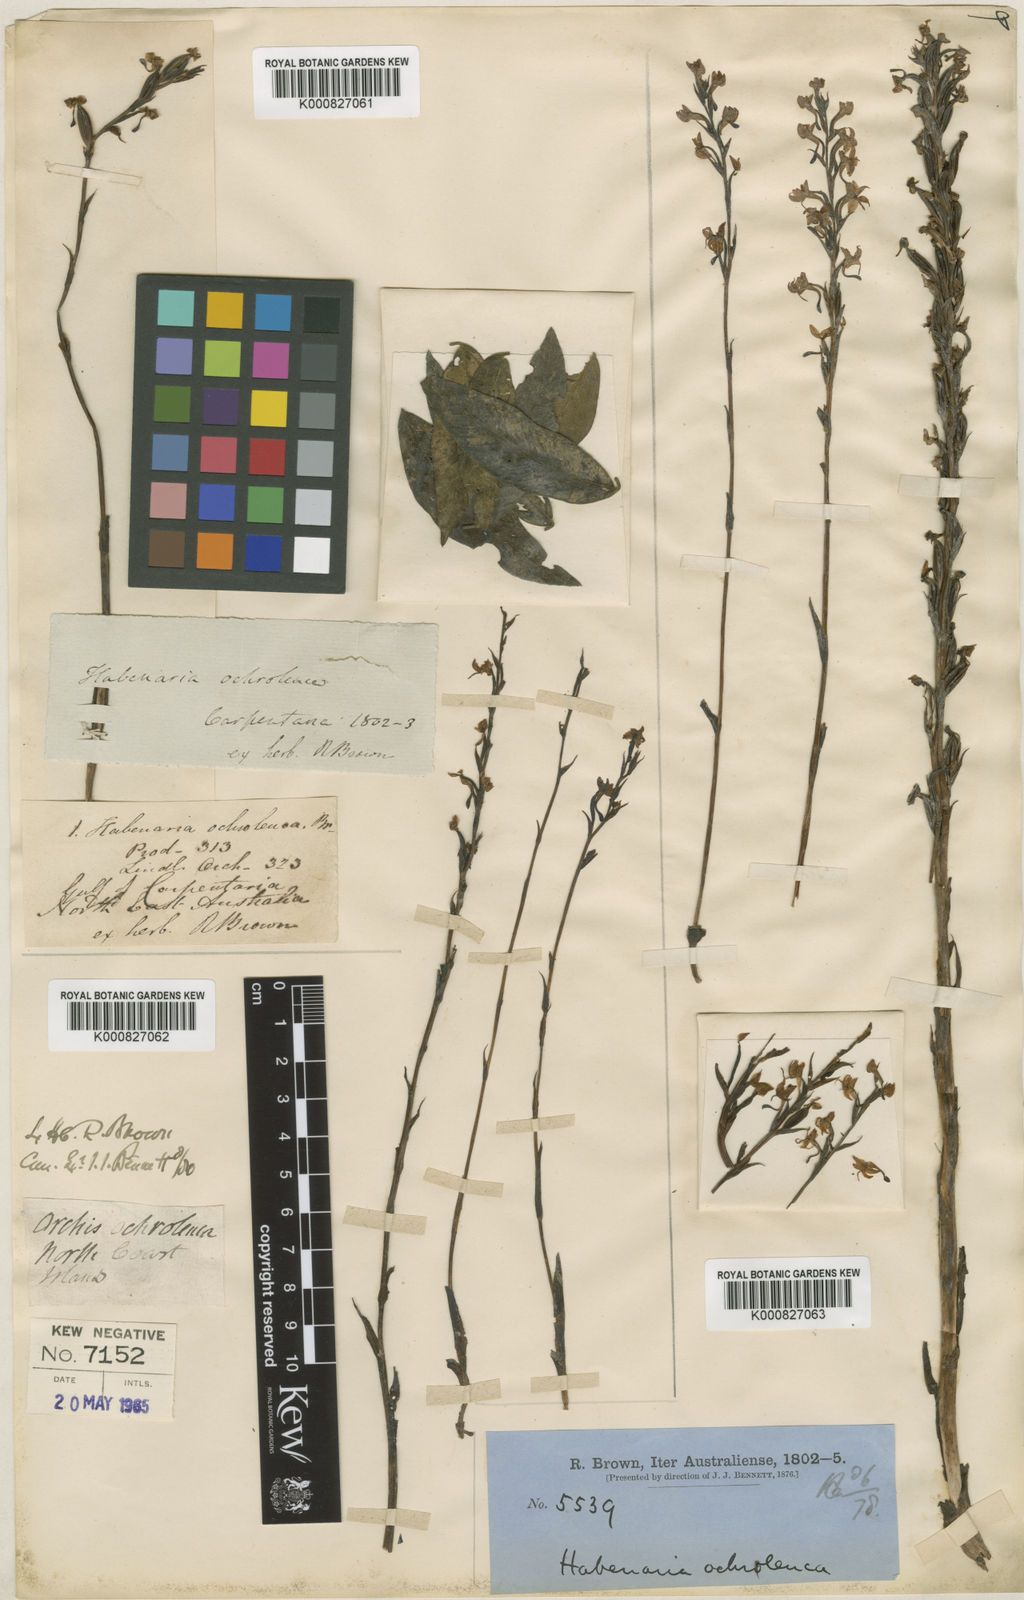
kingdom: Plantae
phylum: Tracheophyta
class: Liliopsida
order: Asparagales
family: Orchidaceae
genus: Habenaria
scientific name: Habenaria ochroleuca
